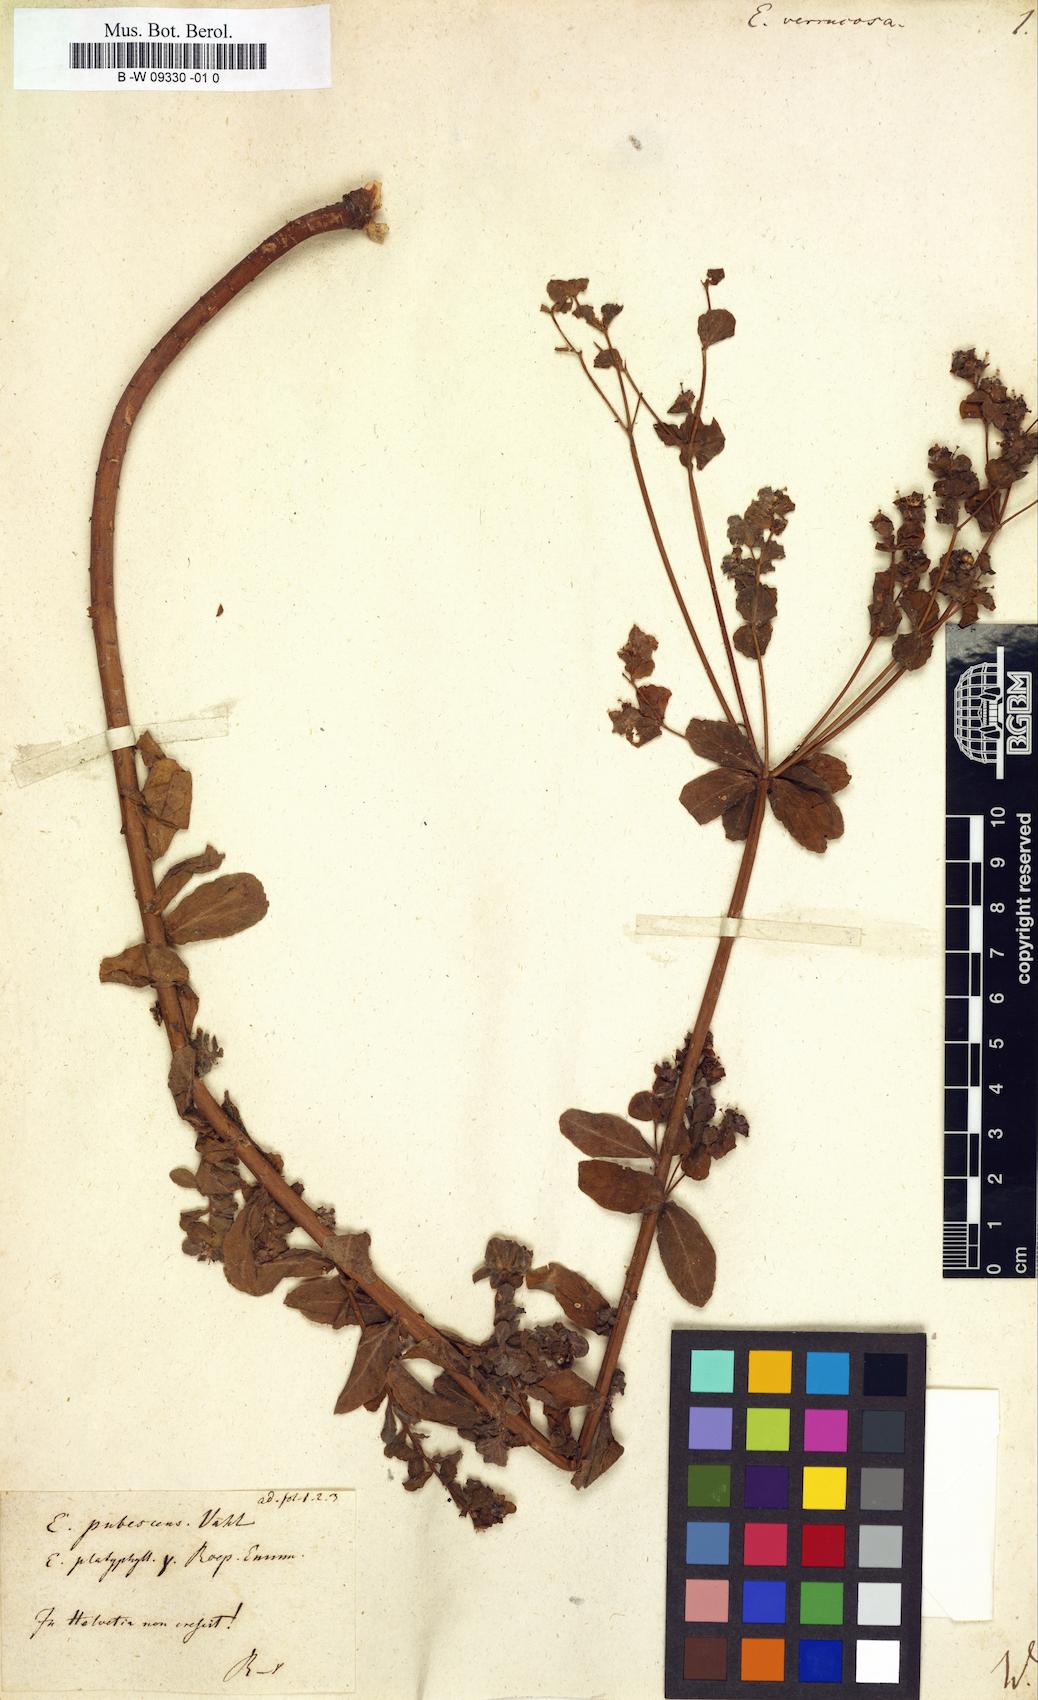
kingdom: Plantae
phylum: Tracheophyta
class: Magnoliopsida
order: Malpighiales
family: Euphorbiaceae
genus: Euphorbia
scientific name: Euphorbia verrucosa
